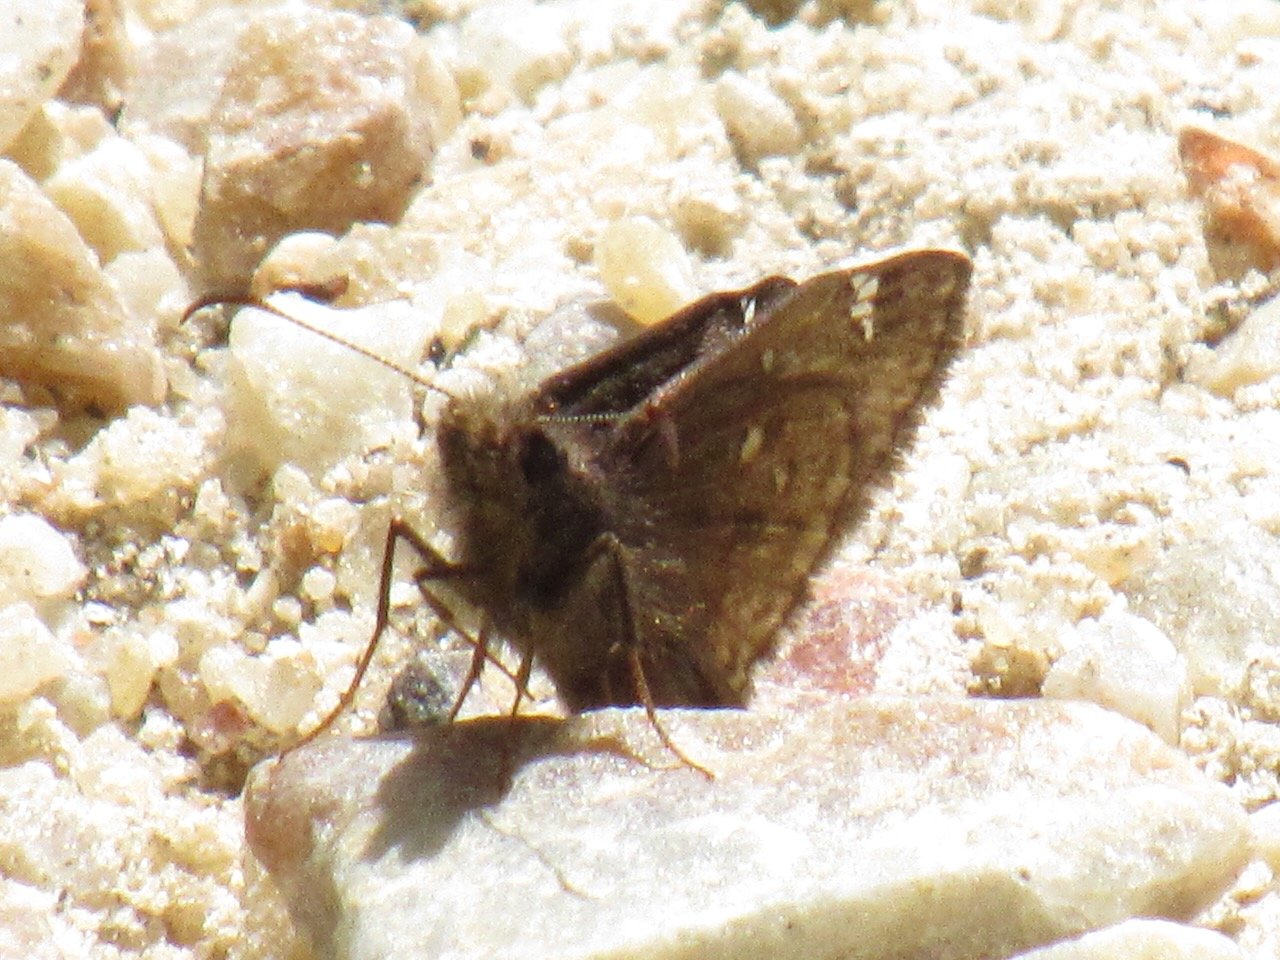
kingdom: Animalia
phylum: Arthropoda
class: Insecta
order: Lepidoptera
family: Hesperiidae
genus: Gesta
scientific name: Gesta
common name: Juvenal's Duskywing
